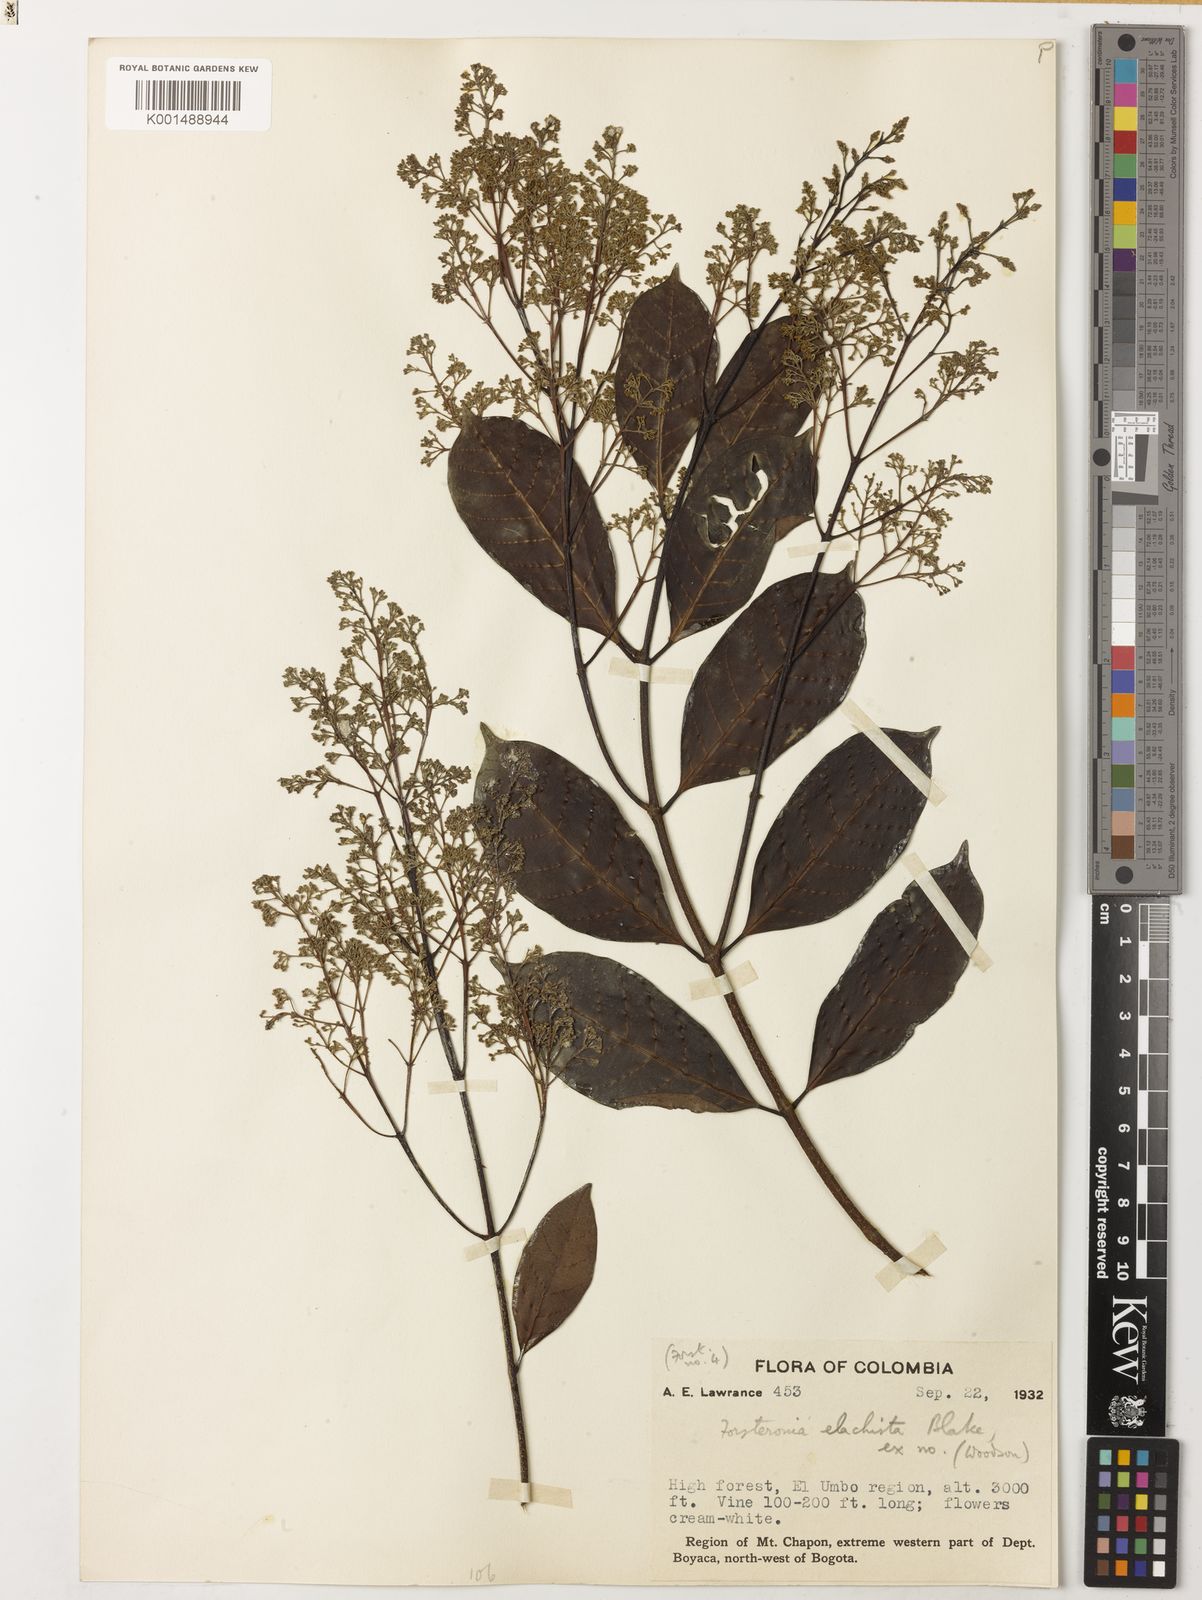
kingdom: Plantae
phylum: Tracheophyta
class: Magnoliopsida
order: Gentianales
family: Apocynaceae
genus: Forsteronia
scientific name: Forsteronia elachista
